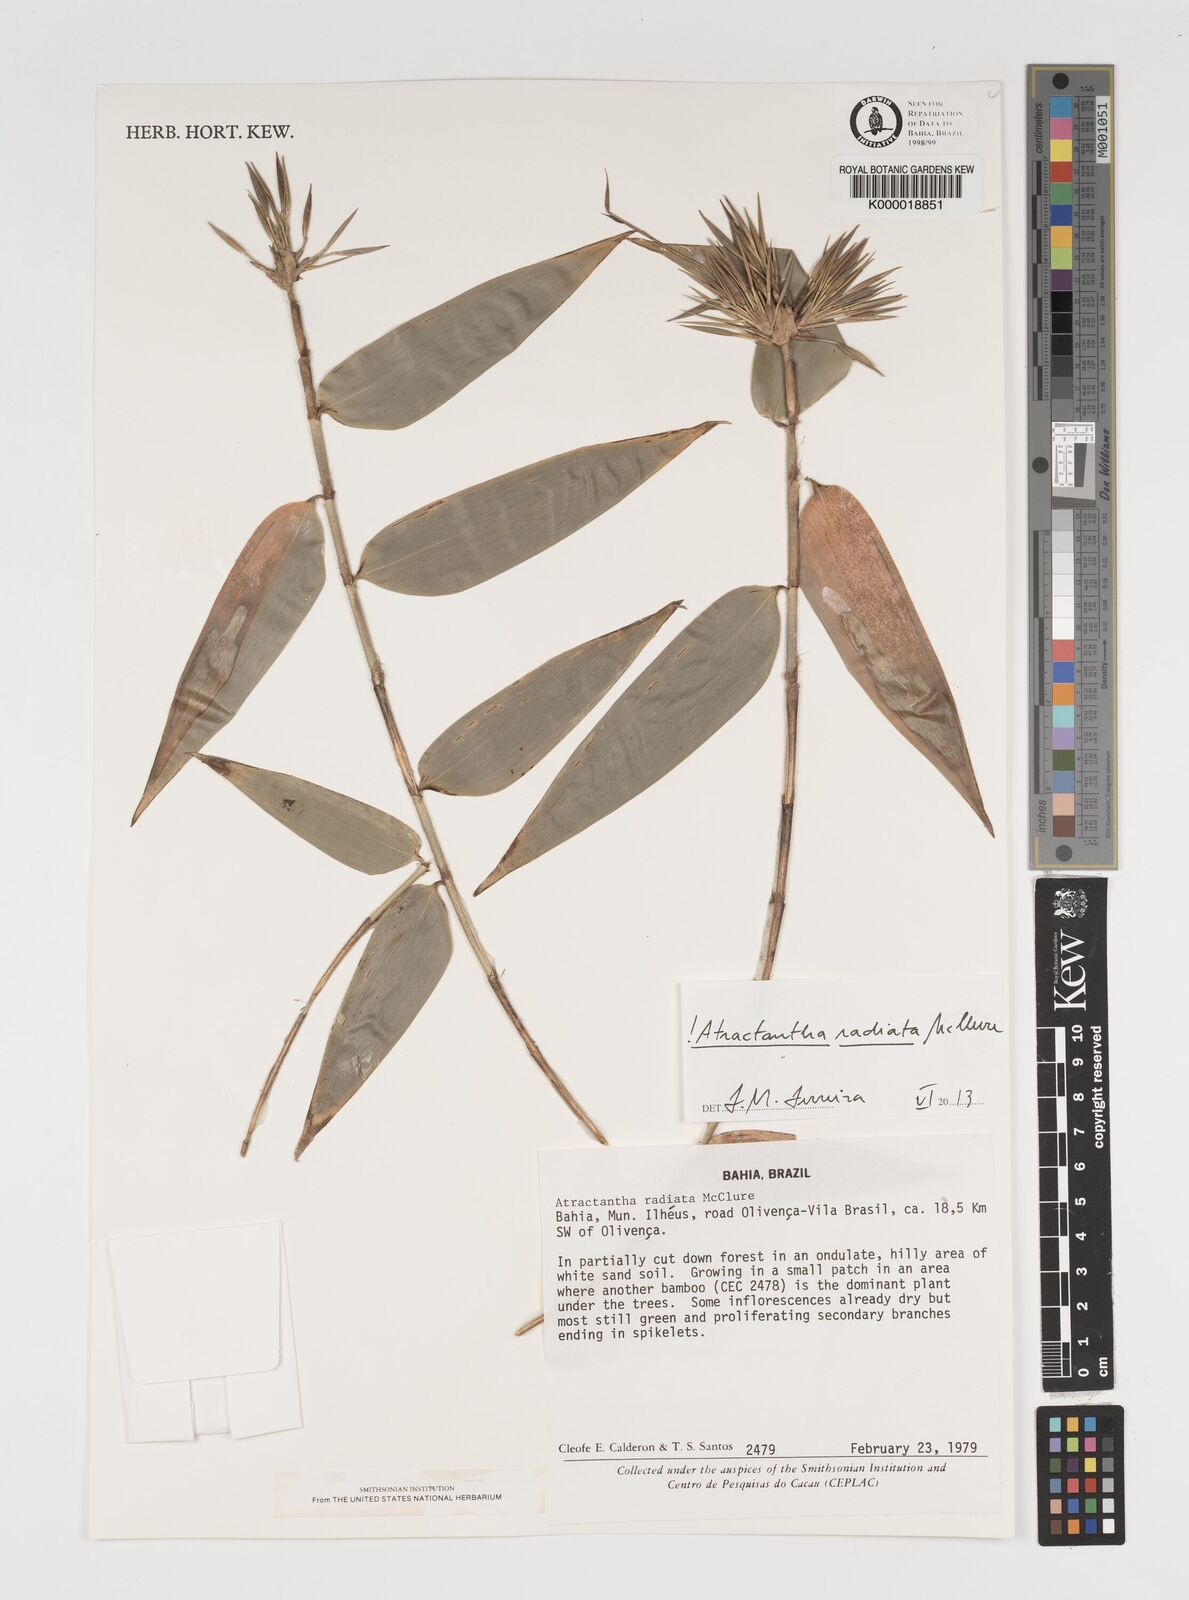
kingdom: Plantae
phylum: Tracheophyta
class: Liliopsida
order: Poales
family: Poaceae
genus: Atractantha
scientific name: Atractantha radiata
